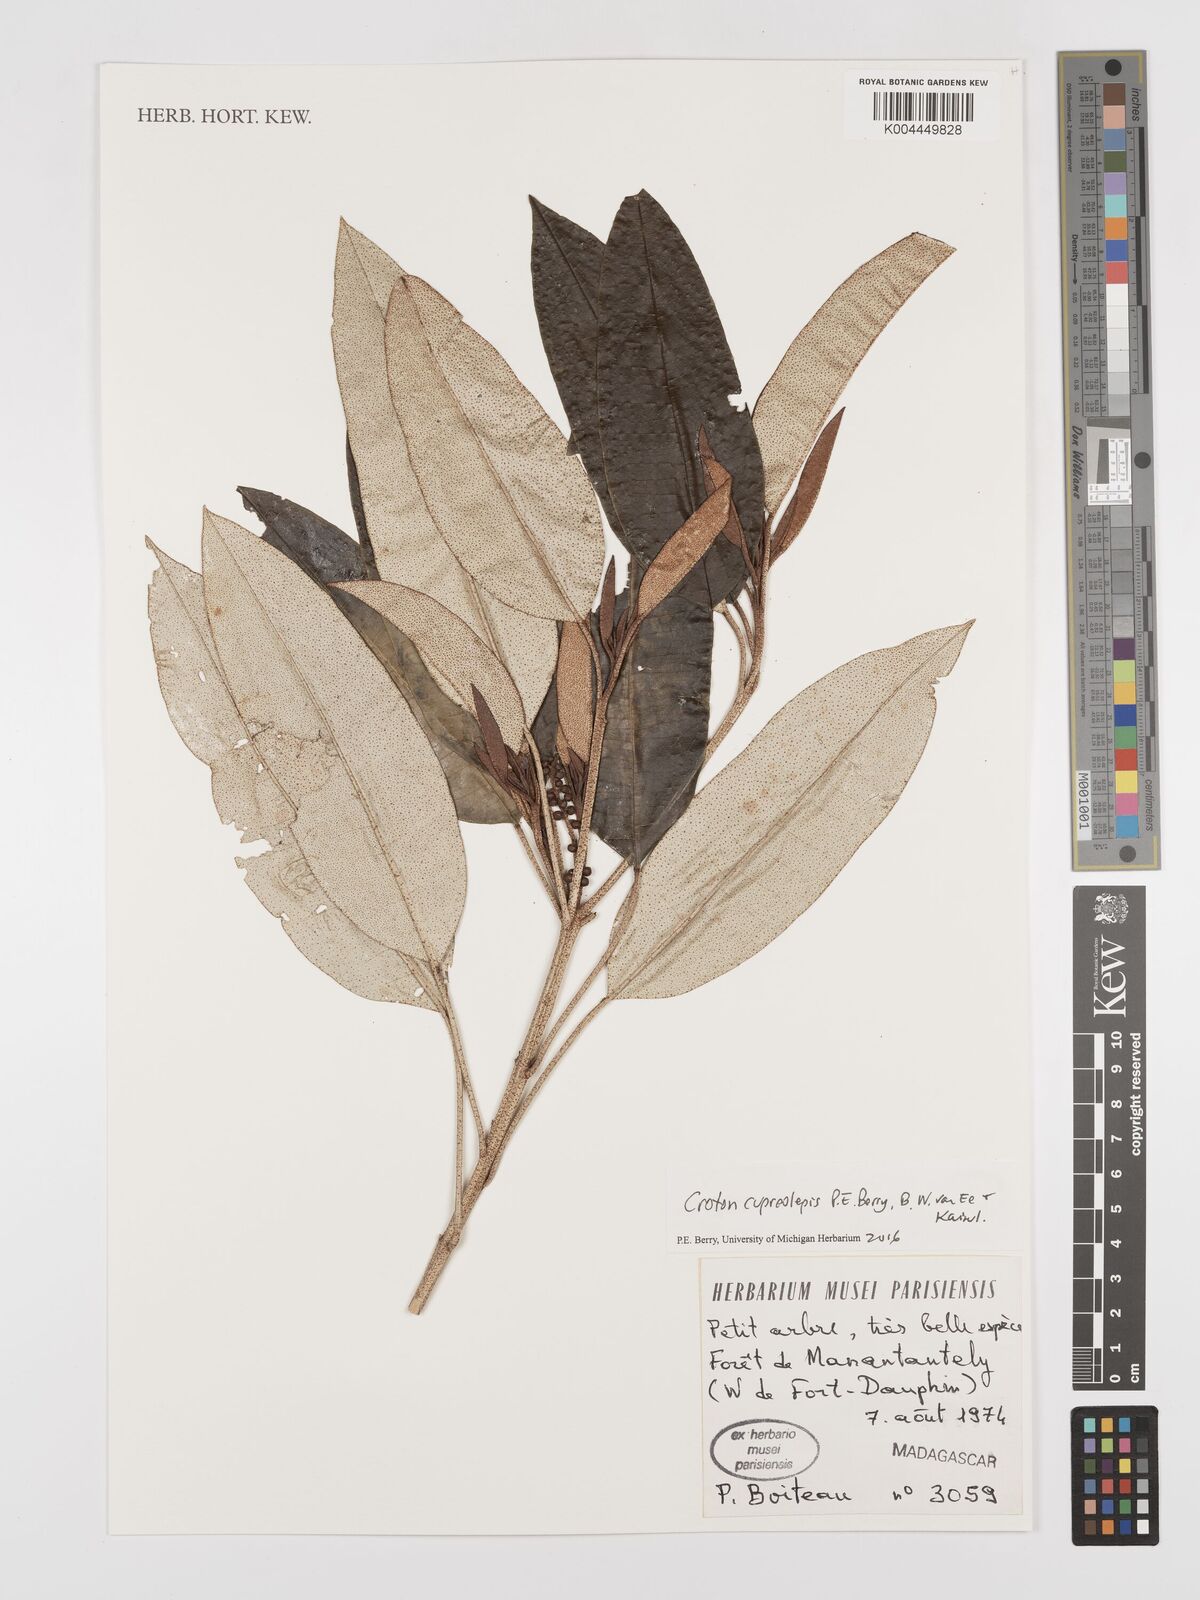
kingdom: Plantae
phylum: Tracheophyta
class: Magnoliopsida
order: Malpighiales
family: Euphorbiaceae
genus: Croton
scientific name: Croton cupreolepis
